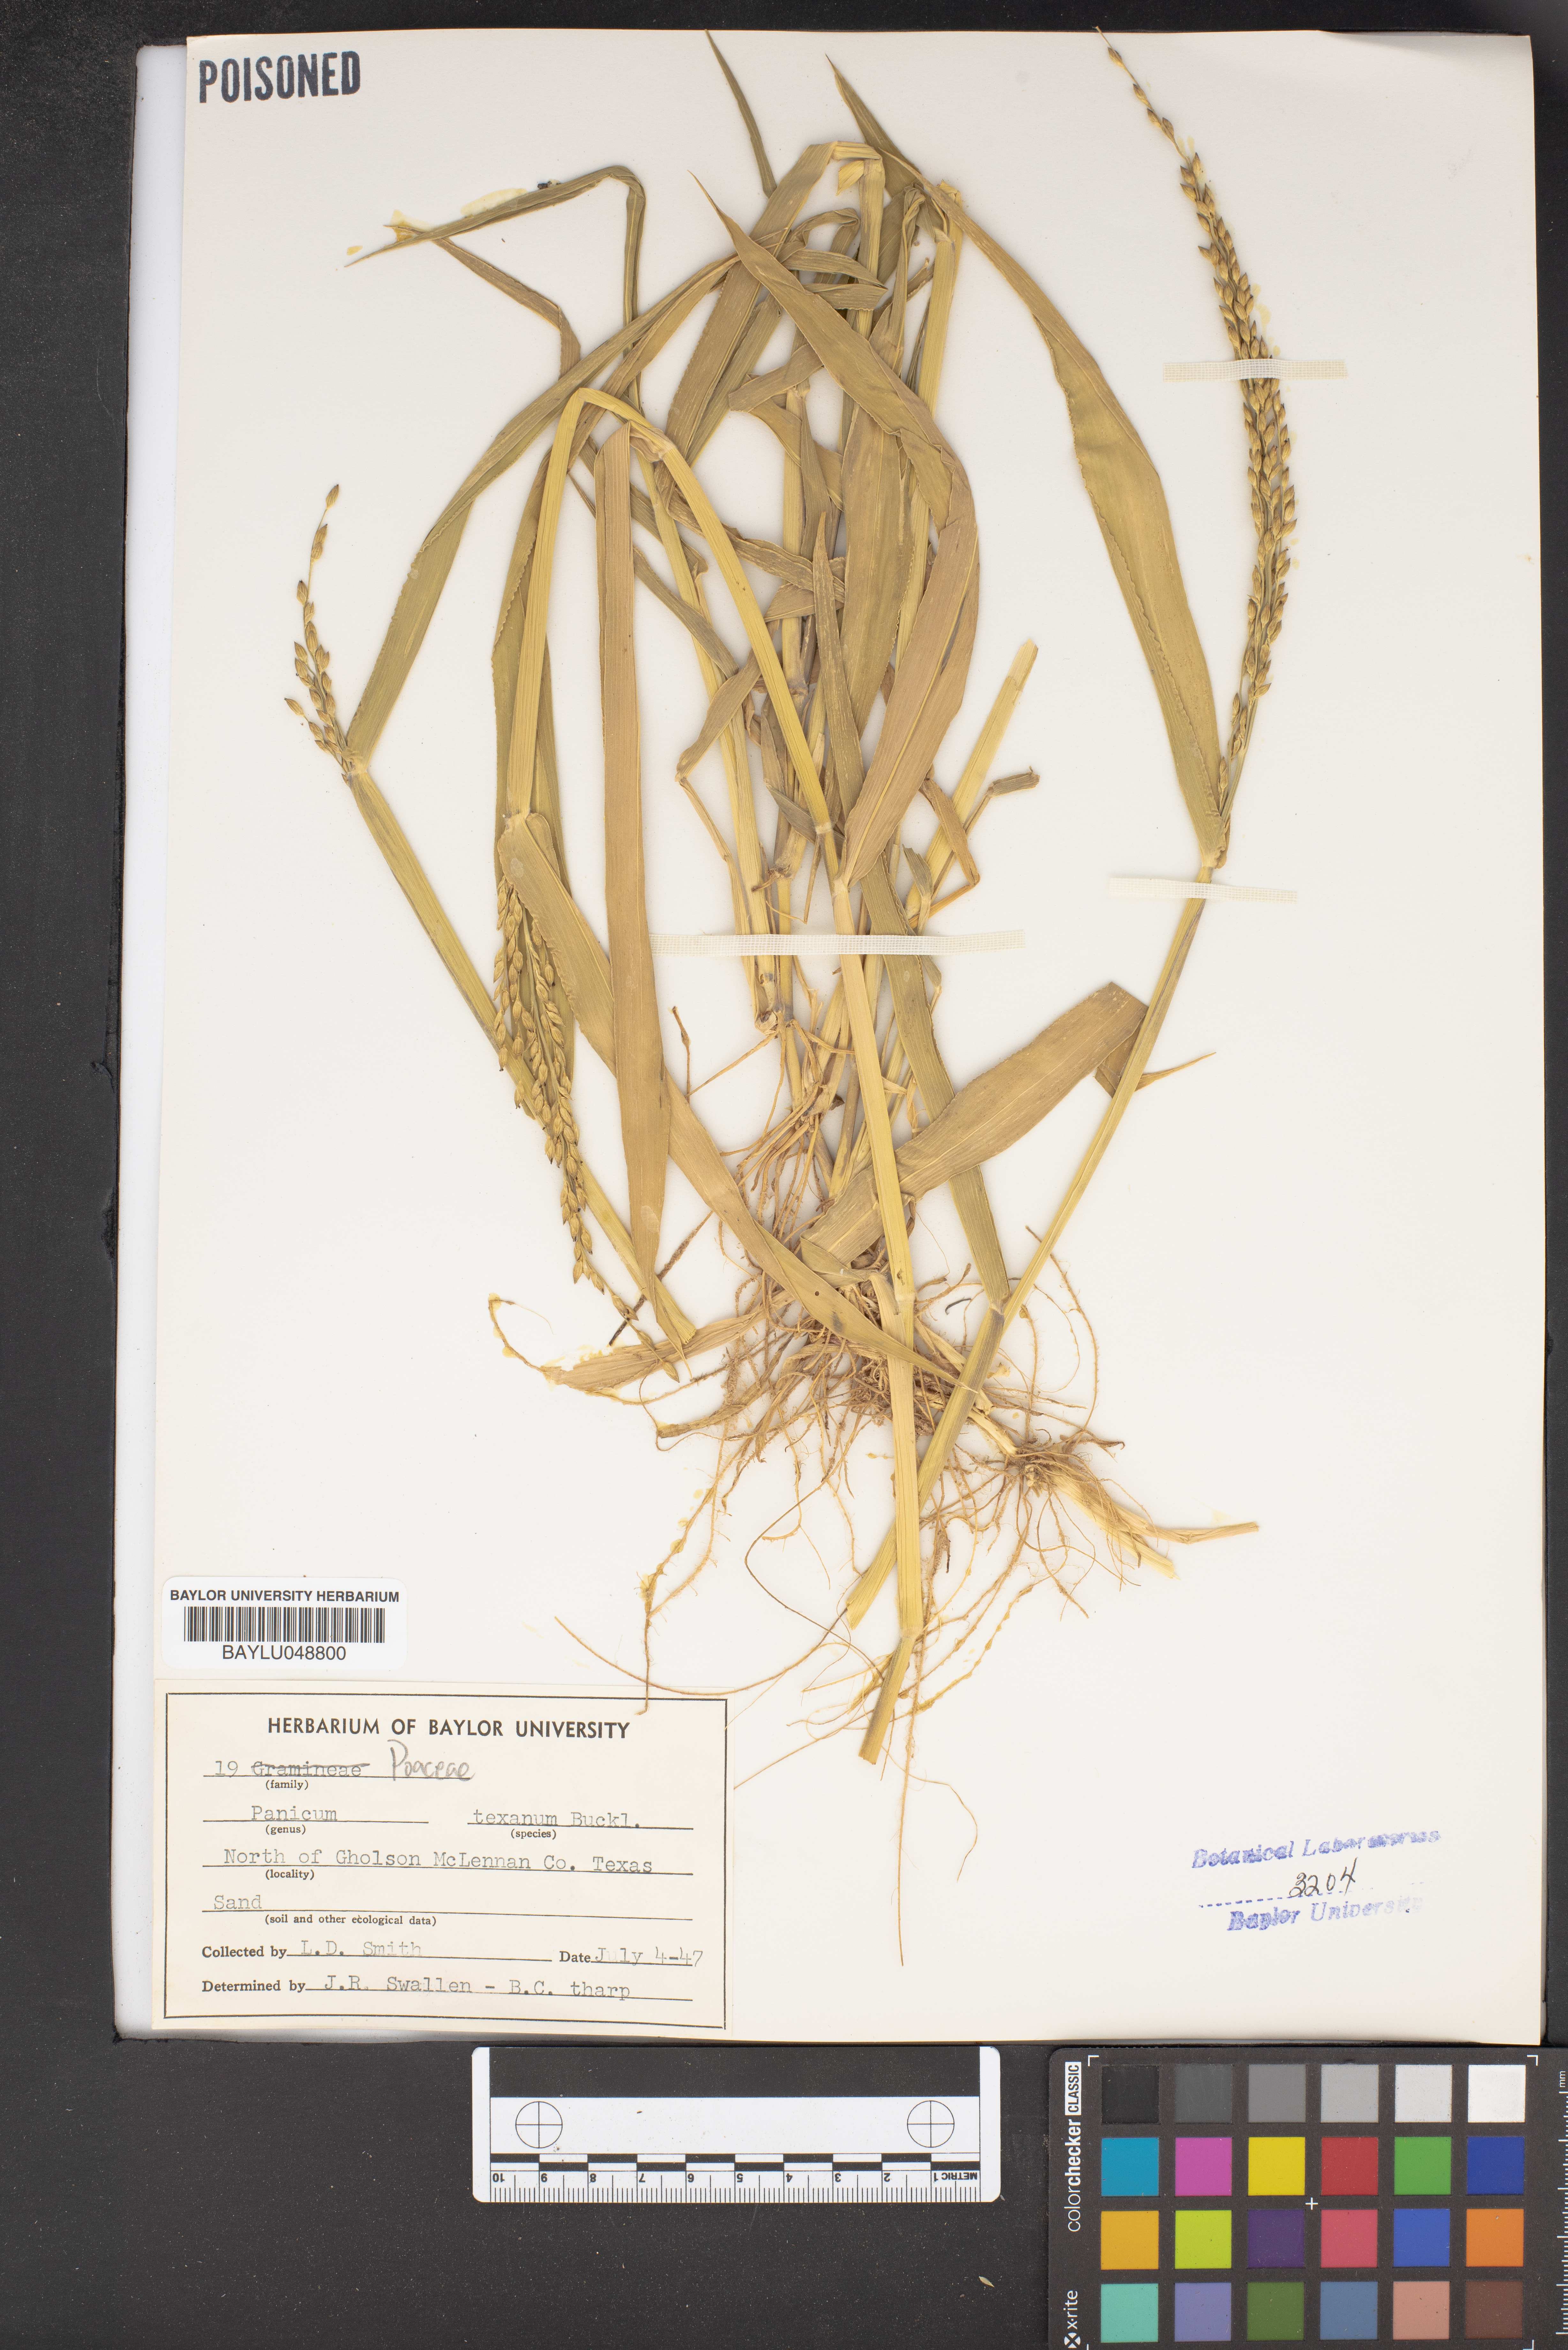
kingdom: Plantae
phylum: Tracheophyta
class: Liliopsida
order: Poales
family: Poaceae
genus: Urochloa
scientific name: Urochloa texana
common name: Texas millet
